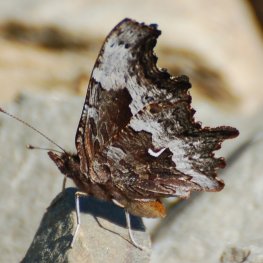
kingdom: Animalia
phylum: Arthropoda
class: Insecta
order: Lepidoptera
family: Nymphalidae
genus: Polygonia
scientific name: Polygonia gracilis
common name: Hoary Comma
